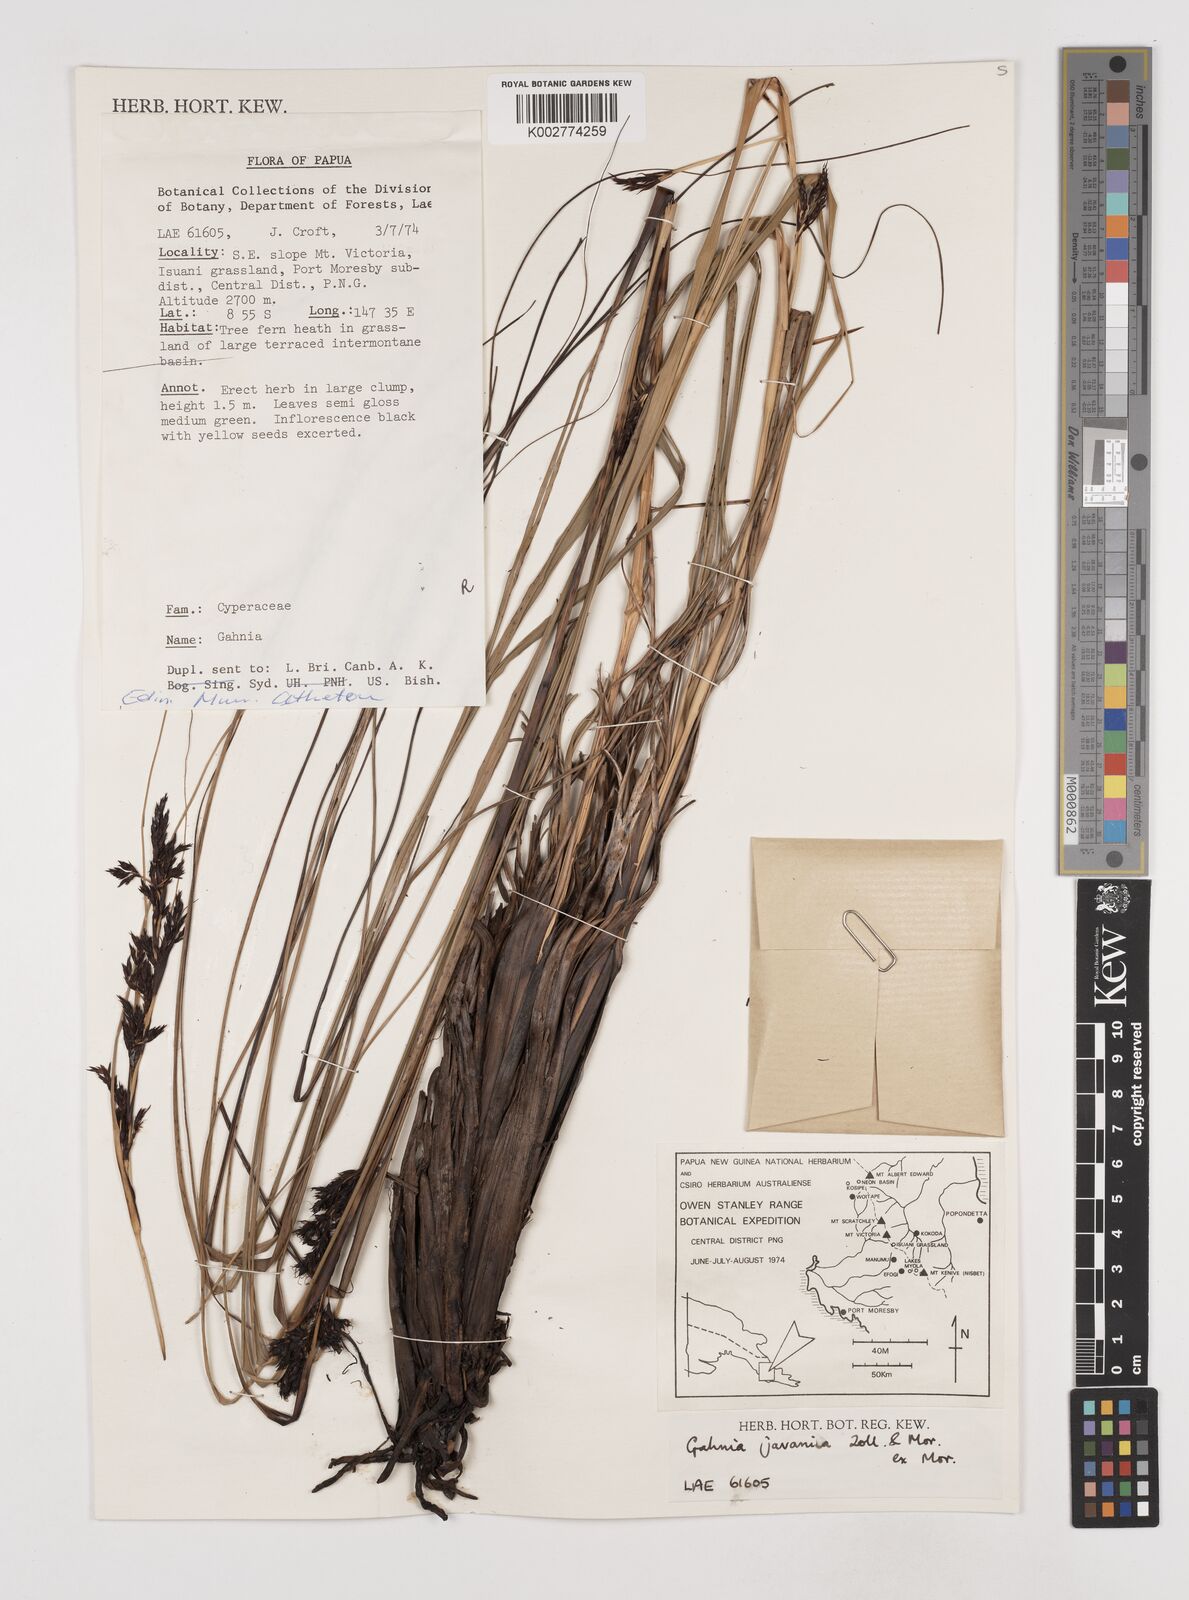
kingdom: Plantae
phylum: Tracheophyta
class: Liliopsida
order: Poales
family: Cyperaceae
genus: Gahnia
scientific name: Gahnia javanica
